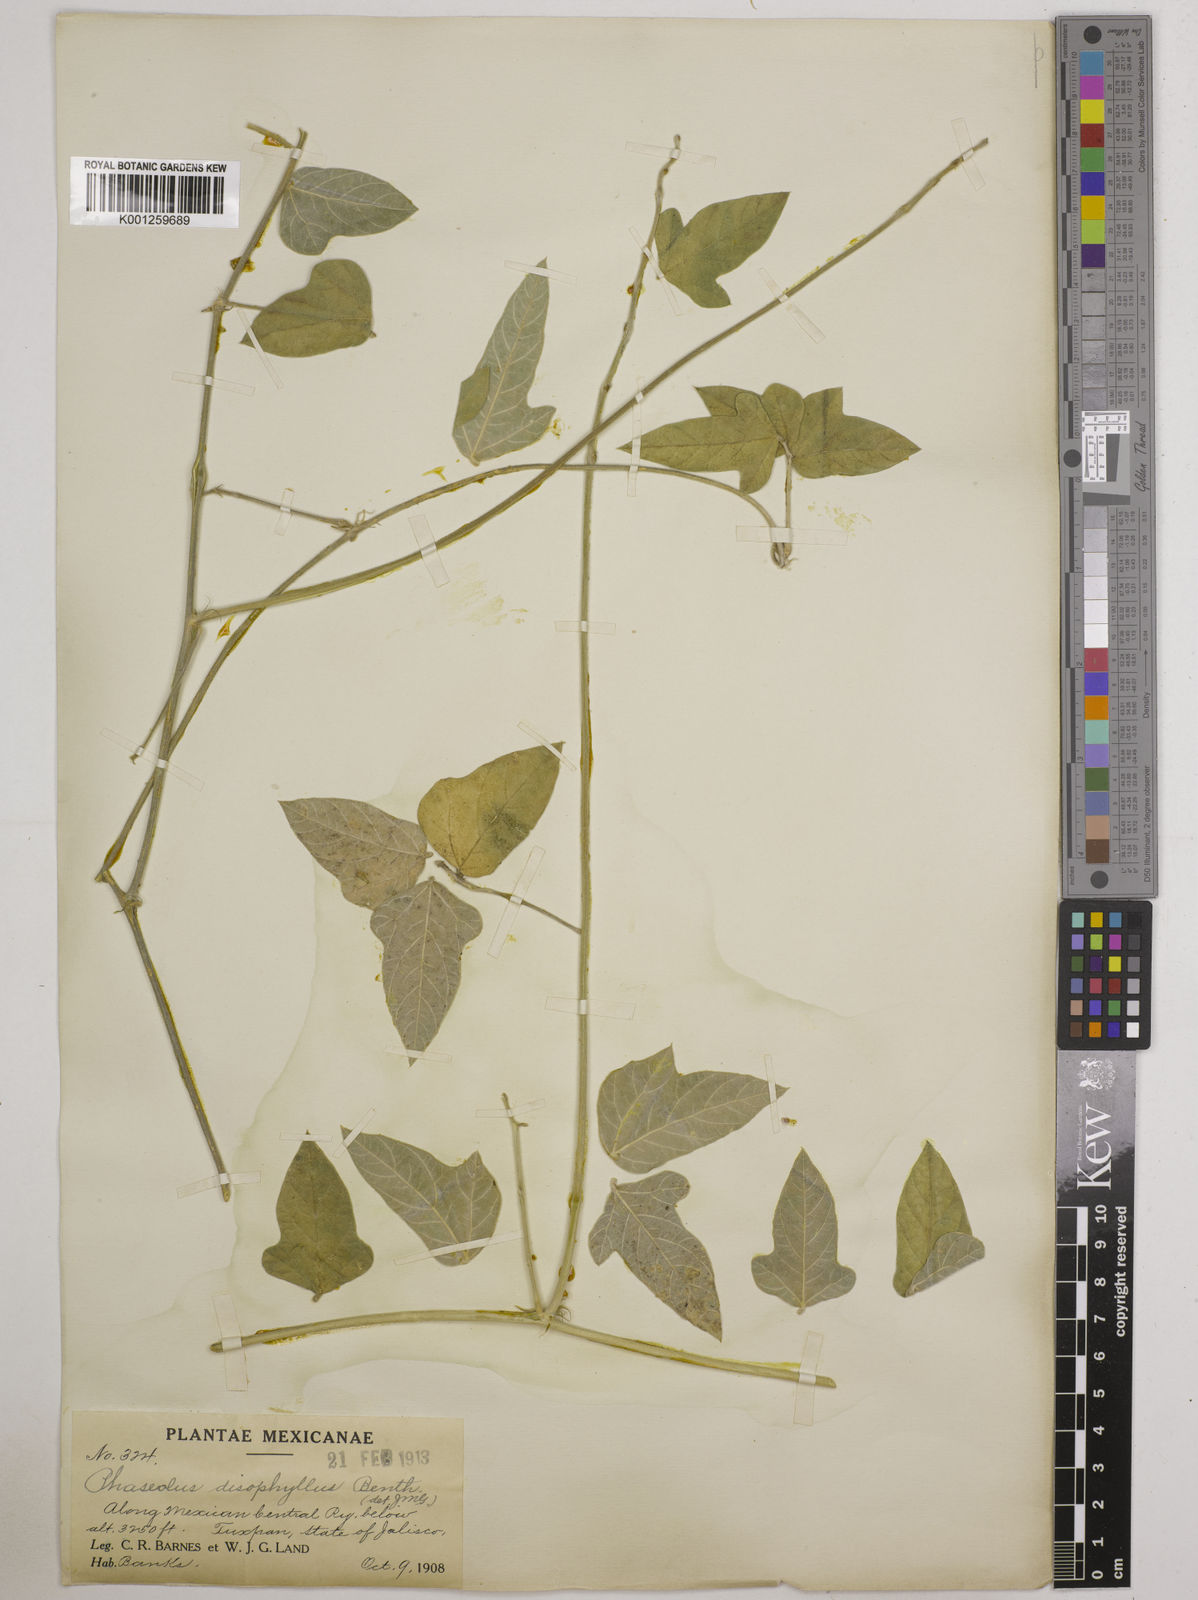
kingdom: Plantae
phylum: Tracheophyta
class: Magnoliopsida
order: Fabales
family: Fabaceae
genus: Macroptilium
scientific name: Macroptilium atropurpureum
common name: Purple bushbean
